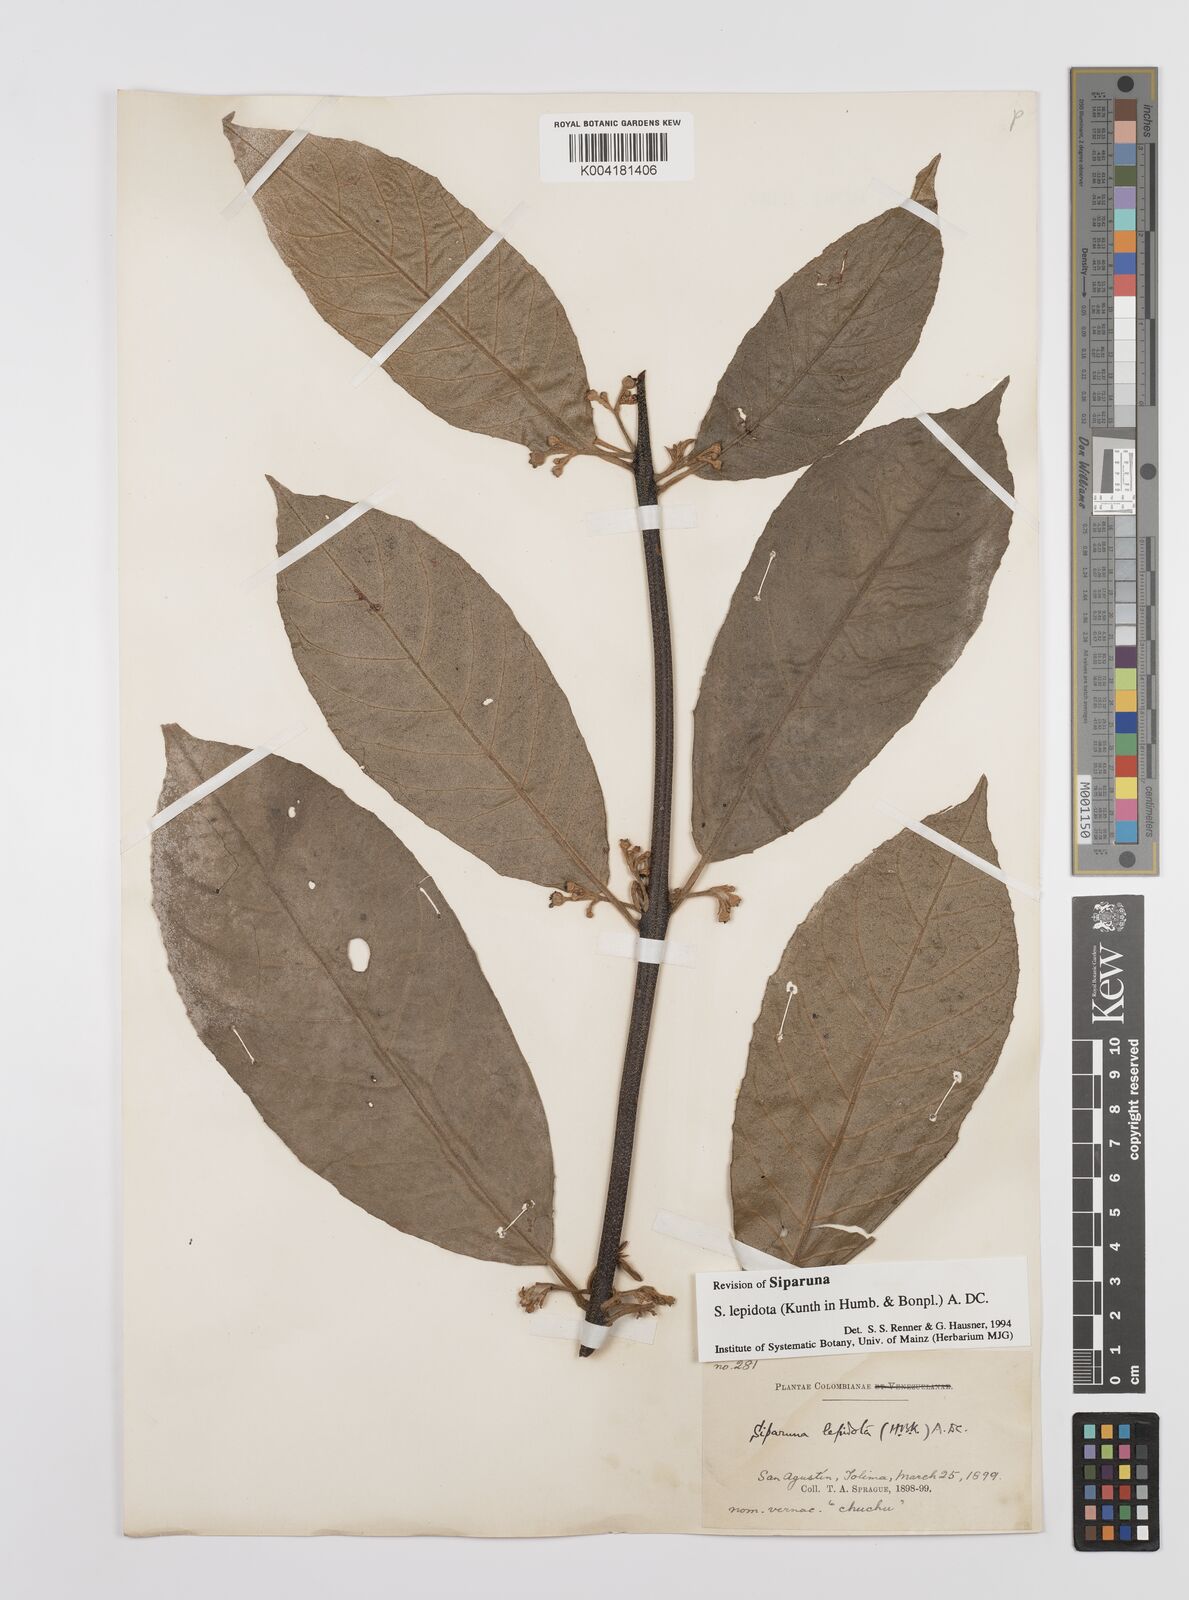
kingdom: Plantae
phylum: Tracheophyta
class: Magnoliopsida
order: Laurales
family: Siparunaceae
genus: Siparuna
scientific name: Siparuna lepidota
